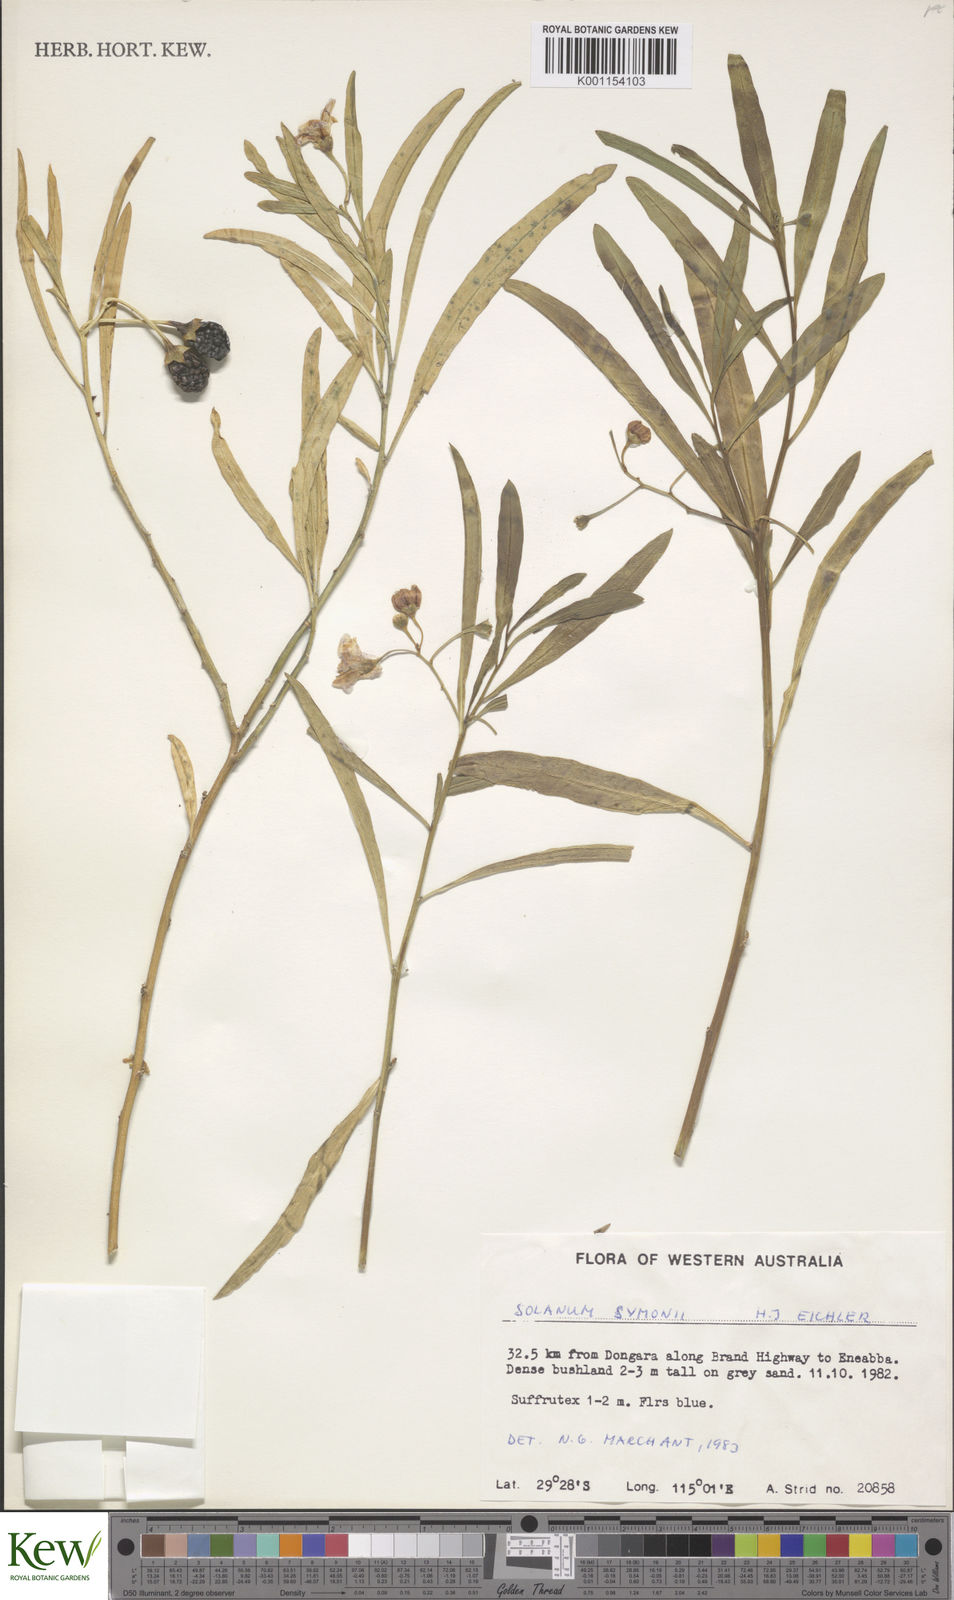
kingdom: Plantae
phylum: Tracheophyta
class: Magnoliopsida
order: Solanales
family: Solanaceae
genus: Solanum
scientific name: Solanum symonii
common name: South australian kangaroo-apple
